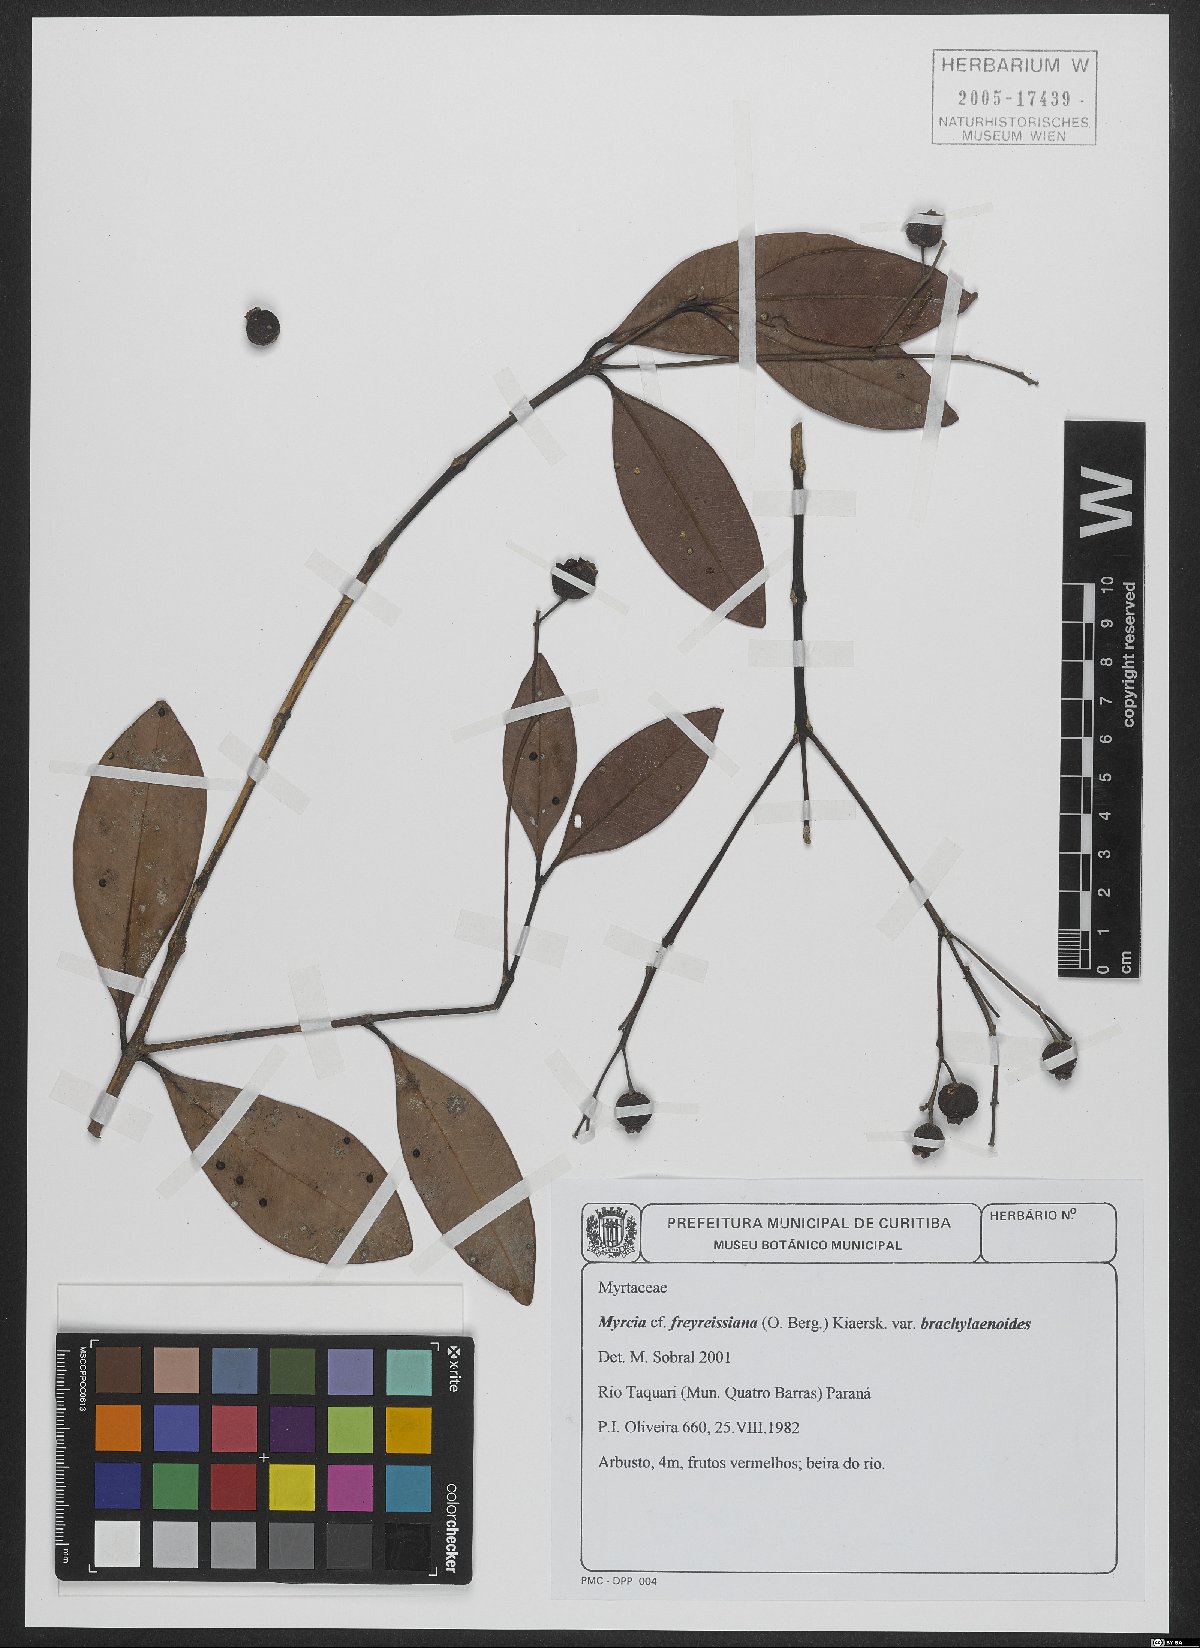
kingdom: Plantae
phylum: Tracheophyta
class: Magnoliopsida
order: Myrtales
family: Myrtaceae
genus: Myrcia
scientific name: Myrcia freyreissiana
